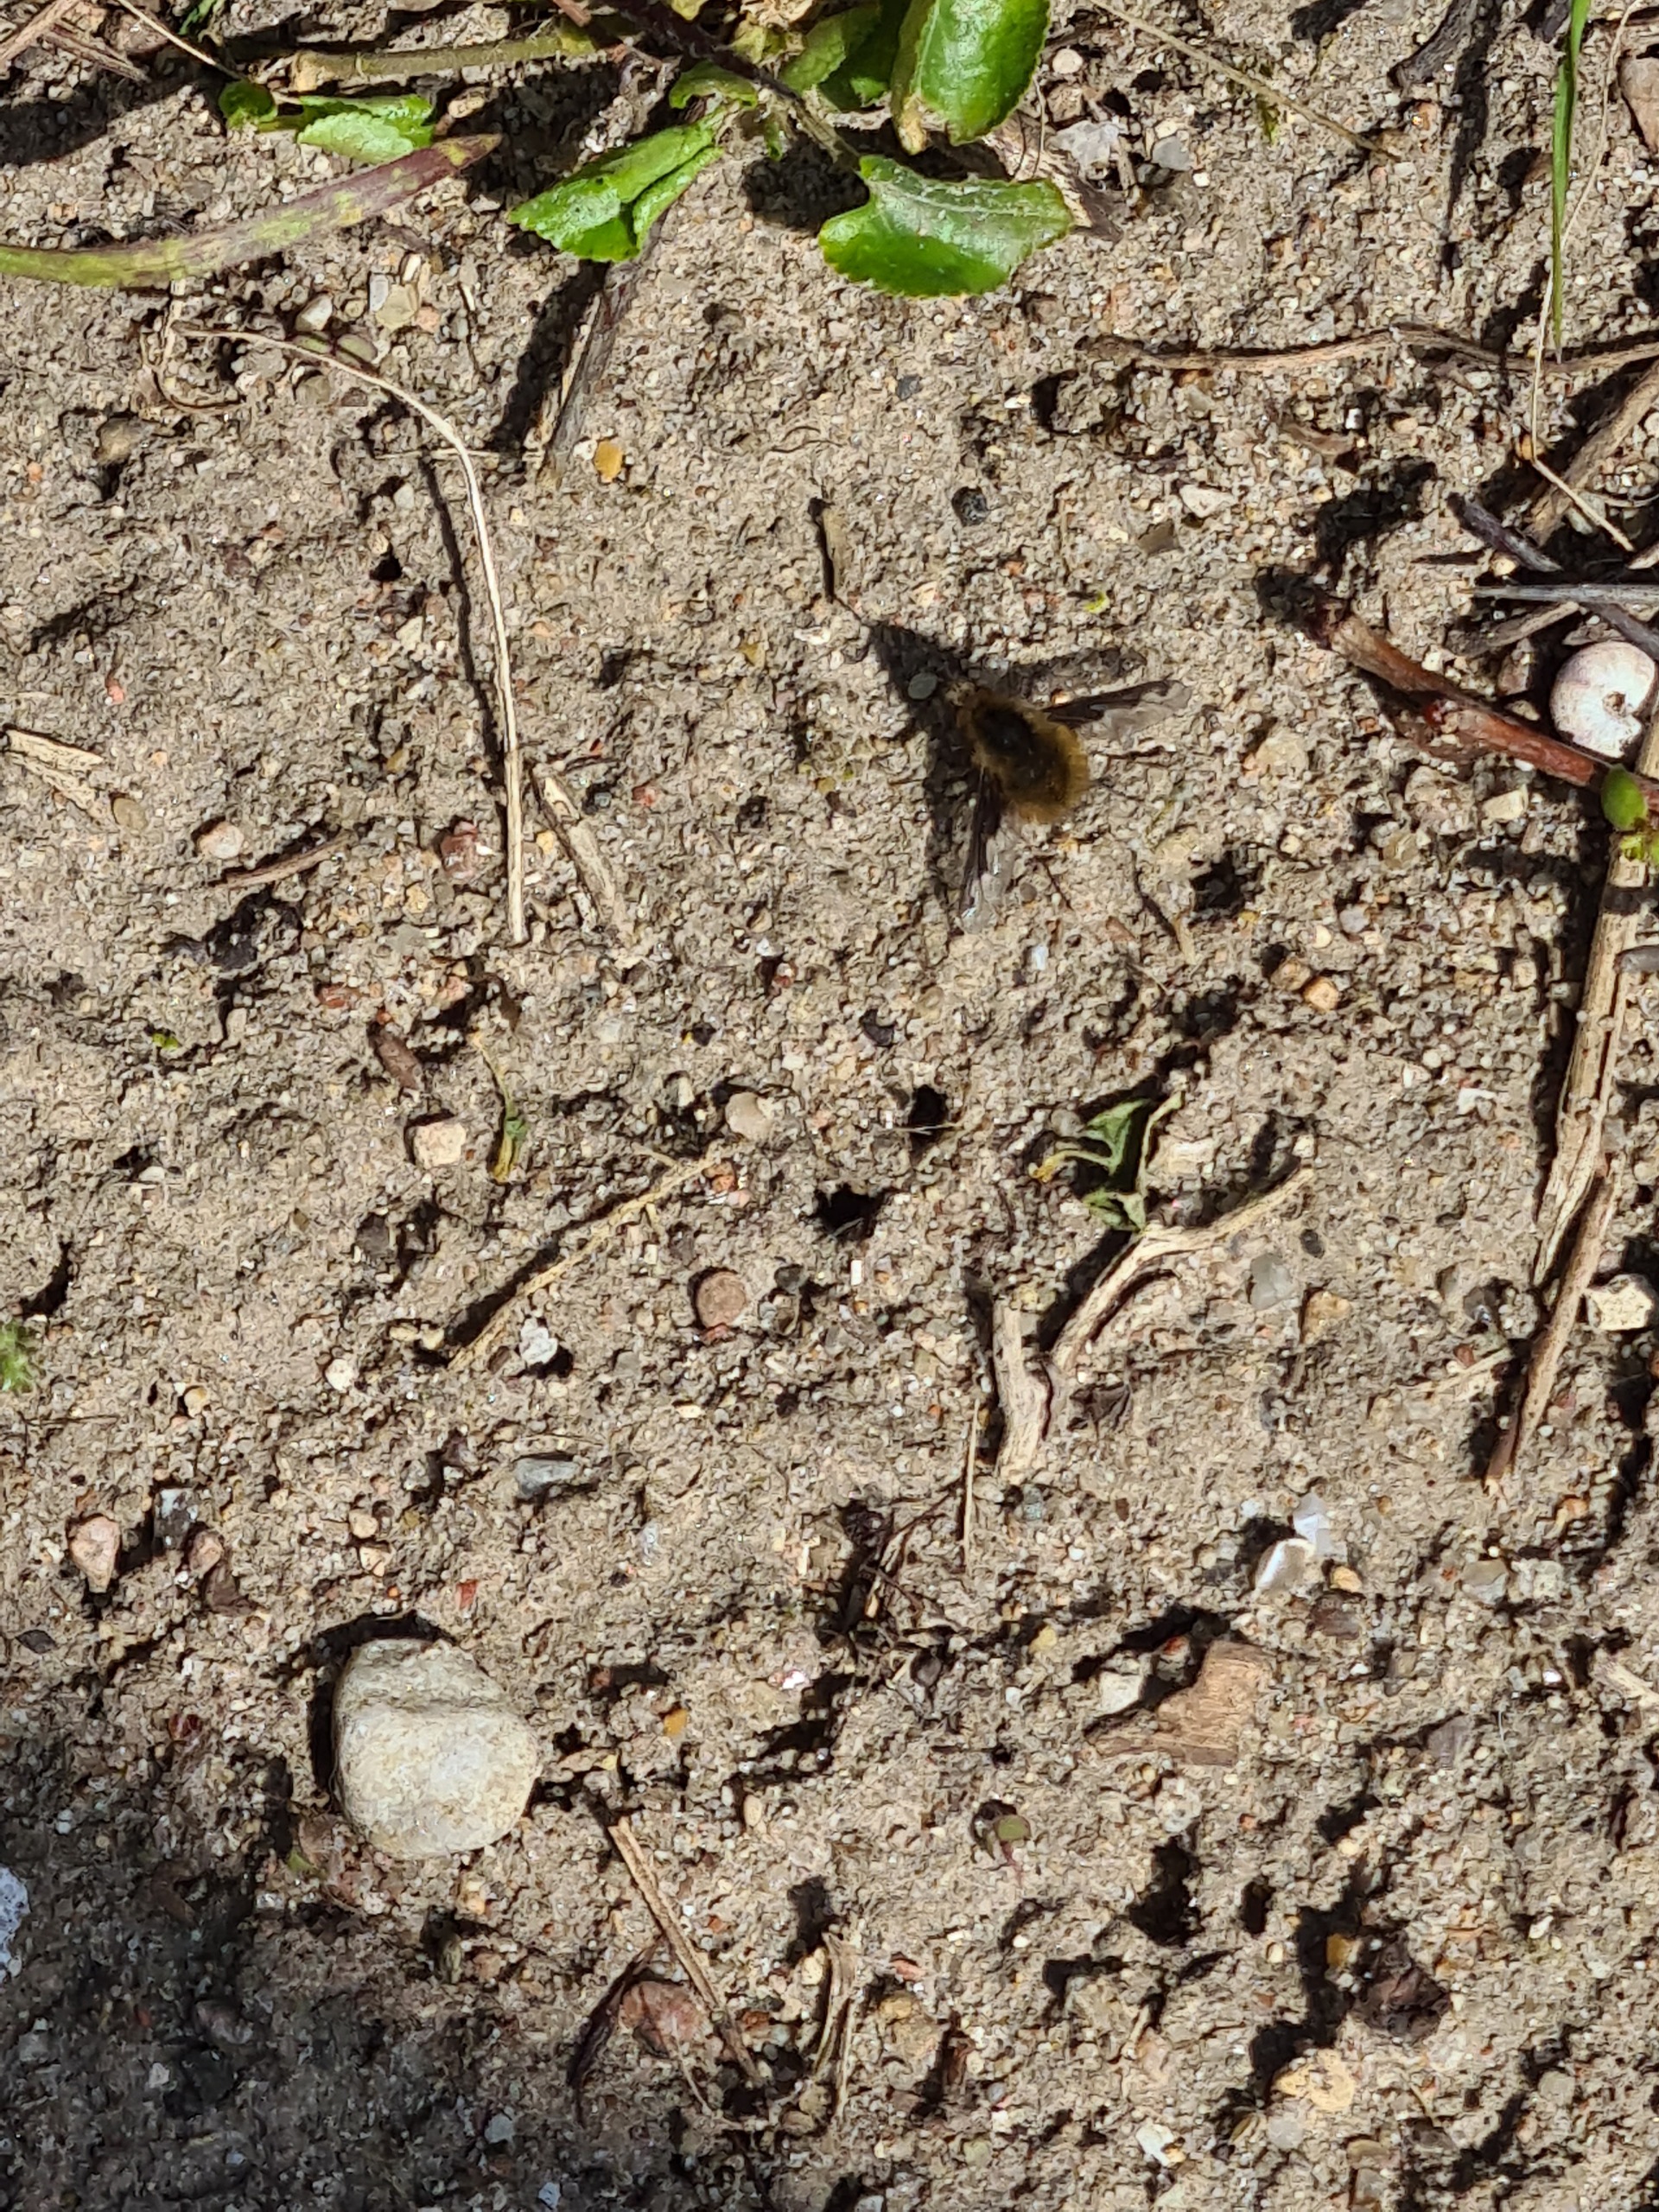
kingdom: Animalia
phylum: Arthropoda
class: Insecta
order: Diptera
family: Bombyliidae
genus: Bombylius
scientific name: Bombylius major
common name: Stor humleflue
